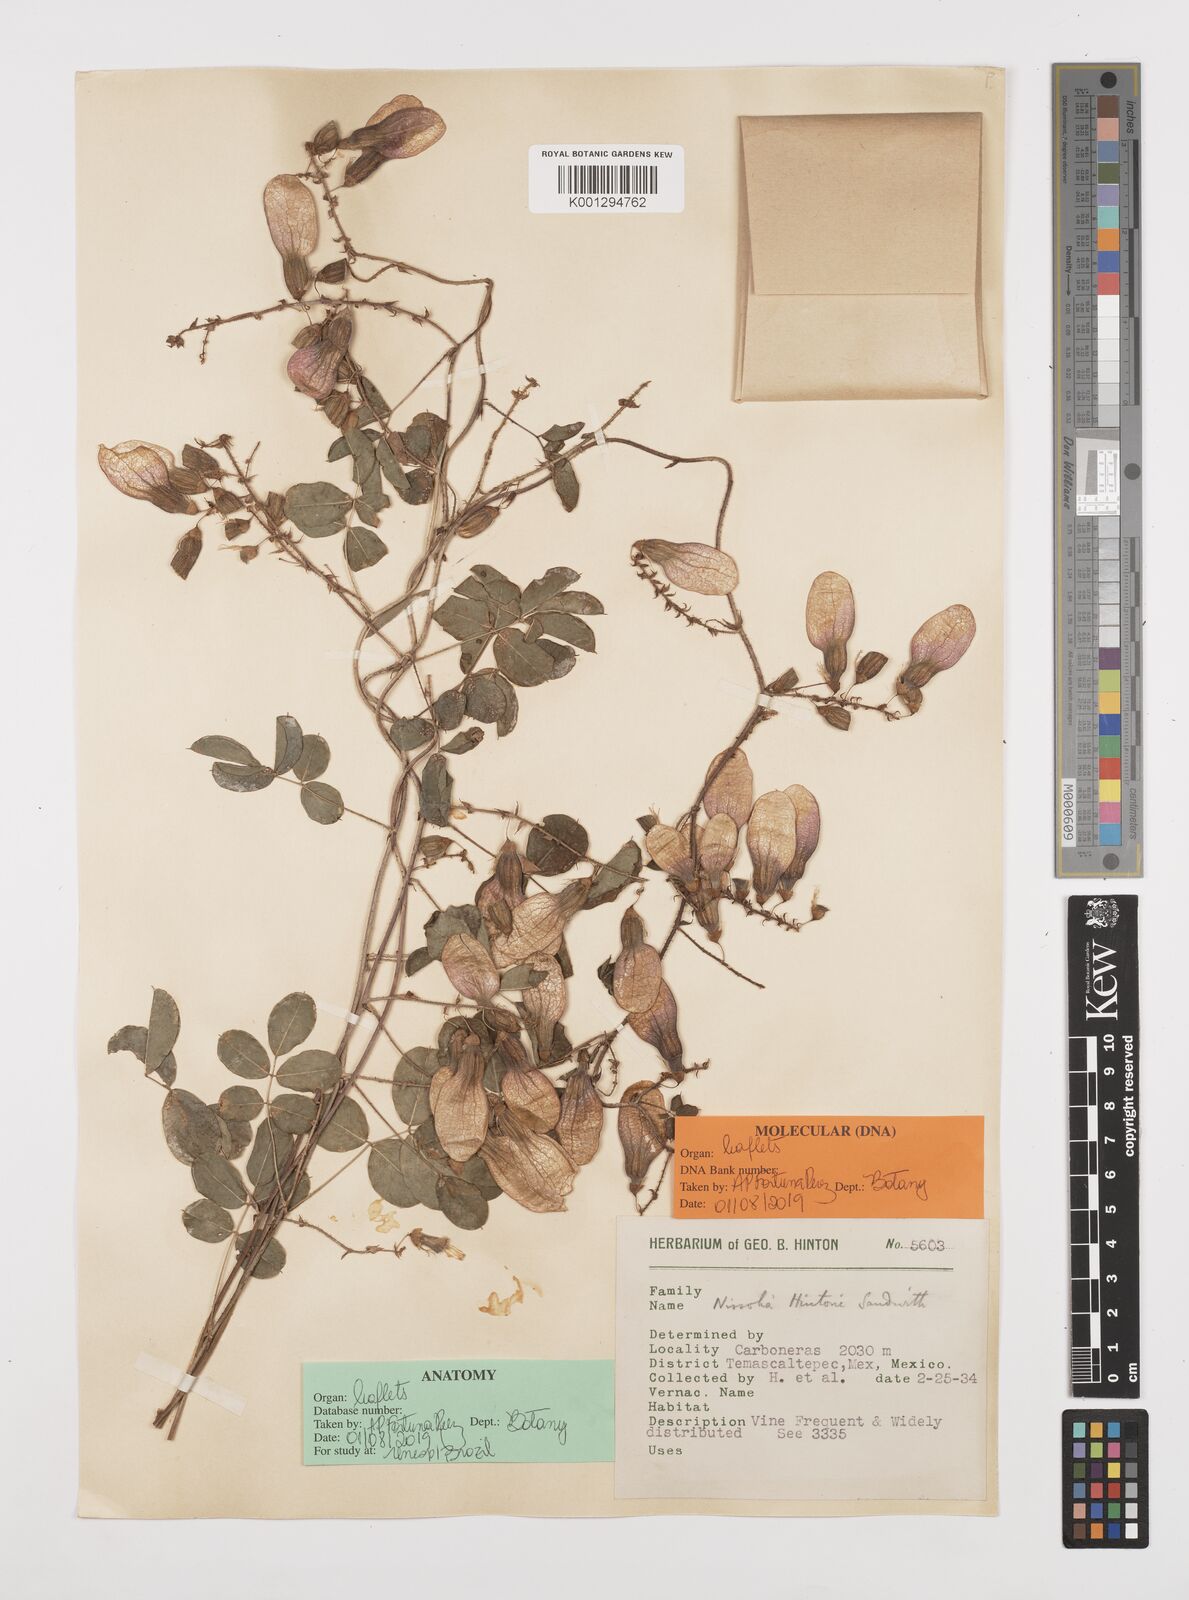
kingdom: Plantae
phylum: Tracheophyta
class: Magnoliopsida
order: Fabales
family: Fabaceae
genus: Nissolia
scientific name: Nissolia hintonii
